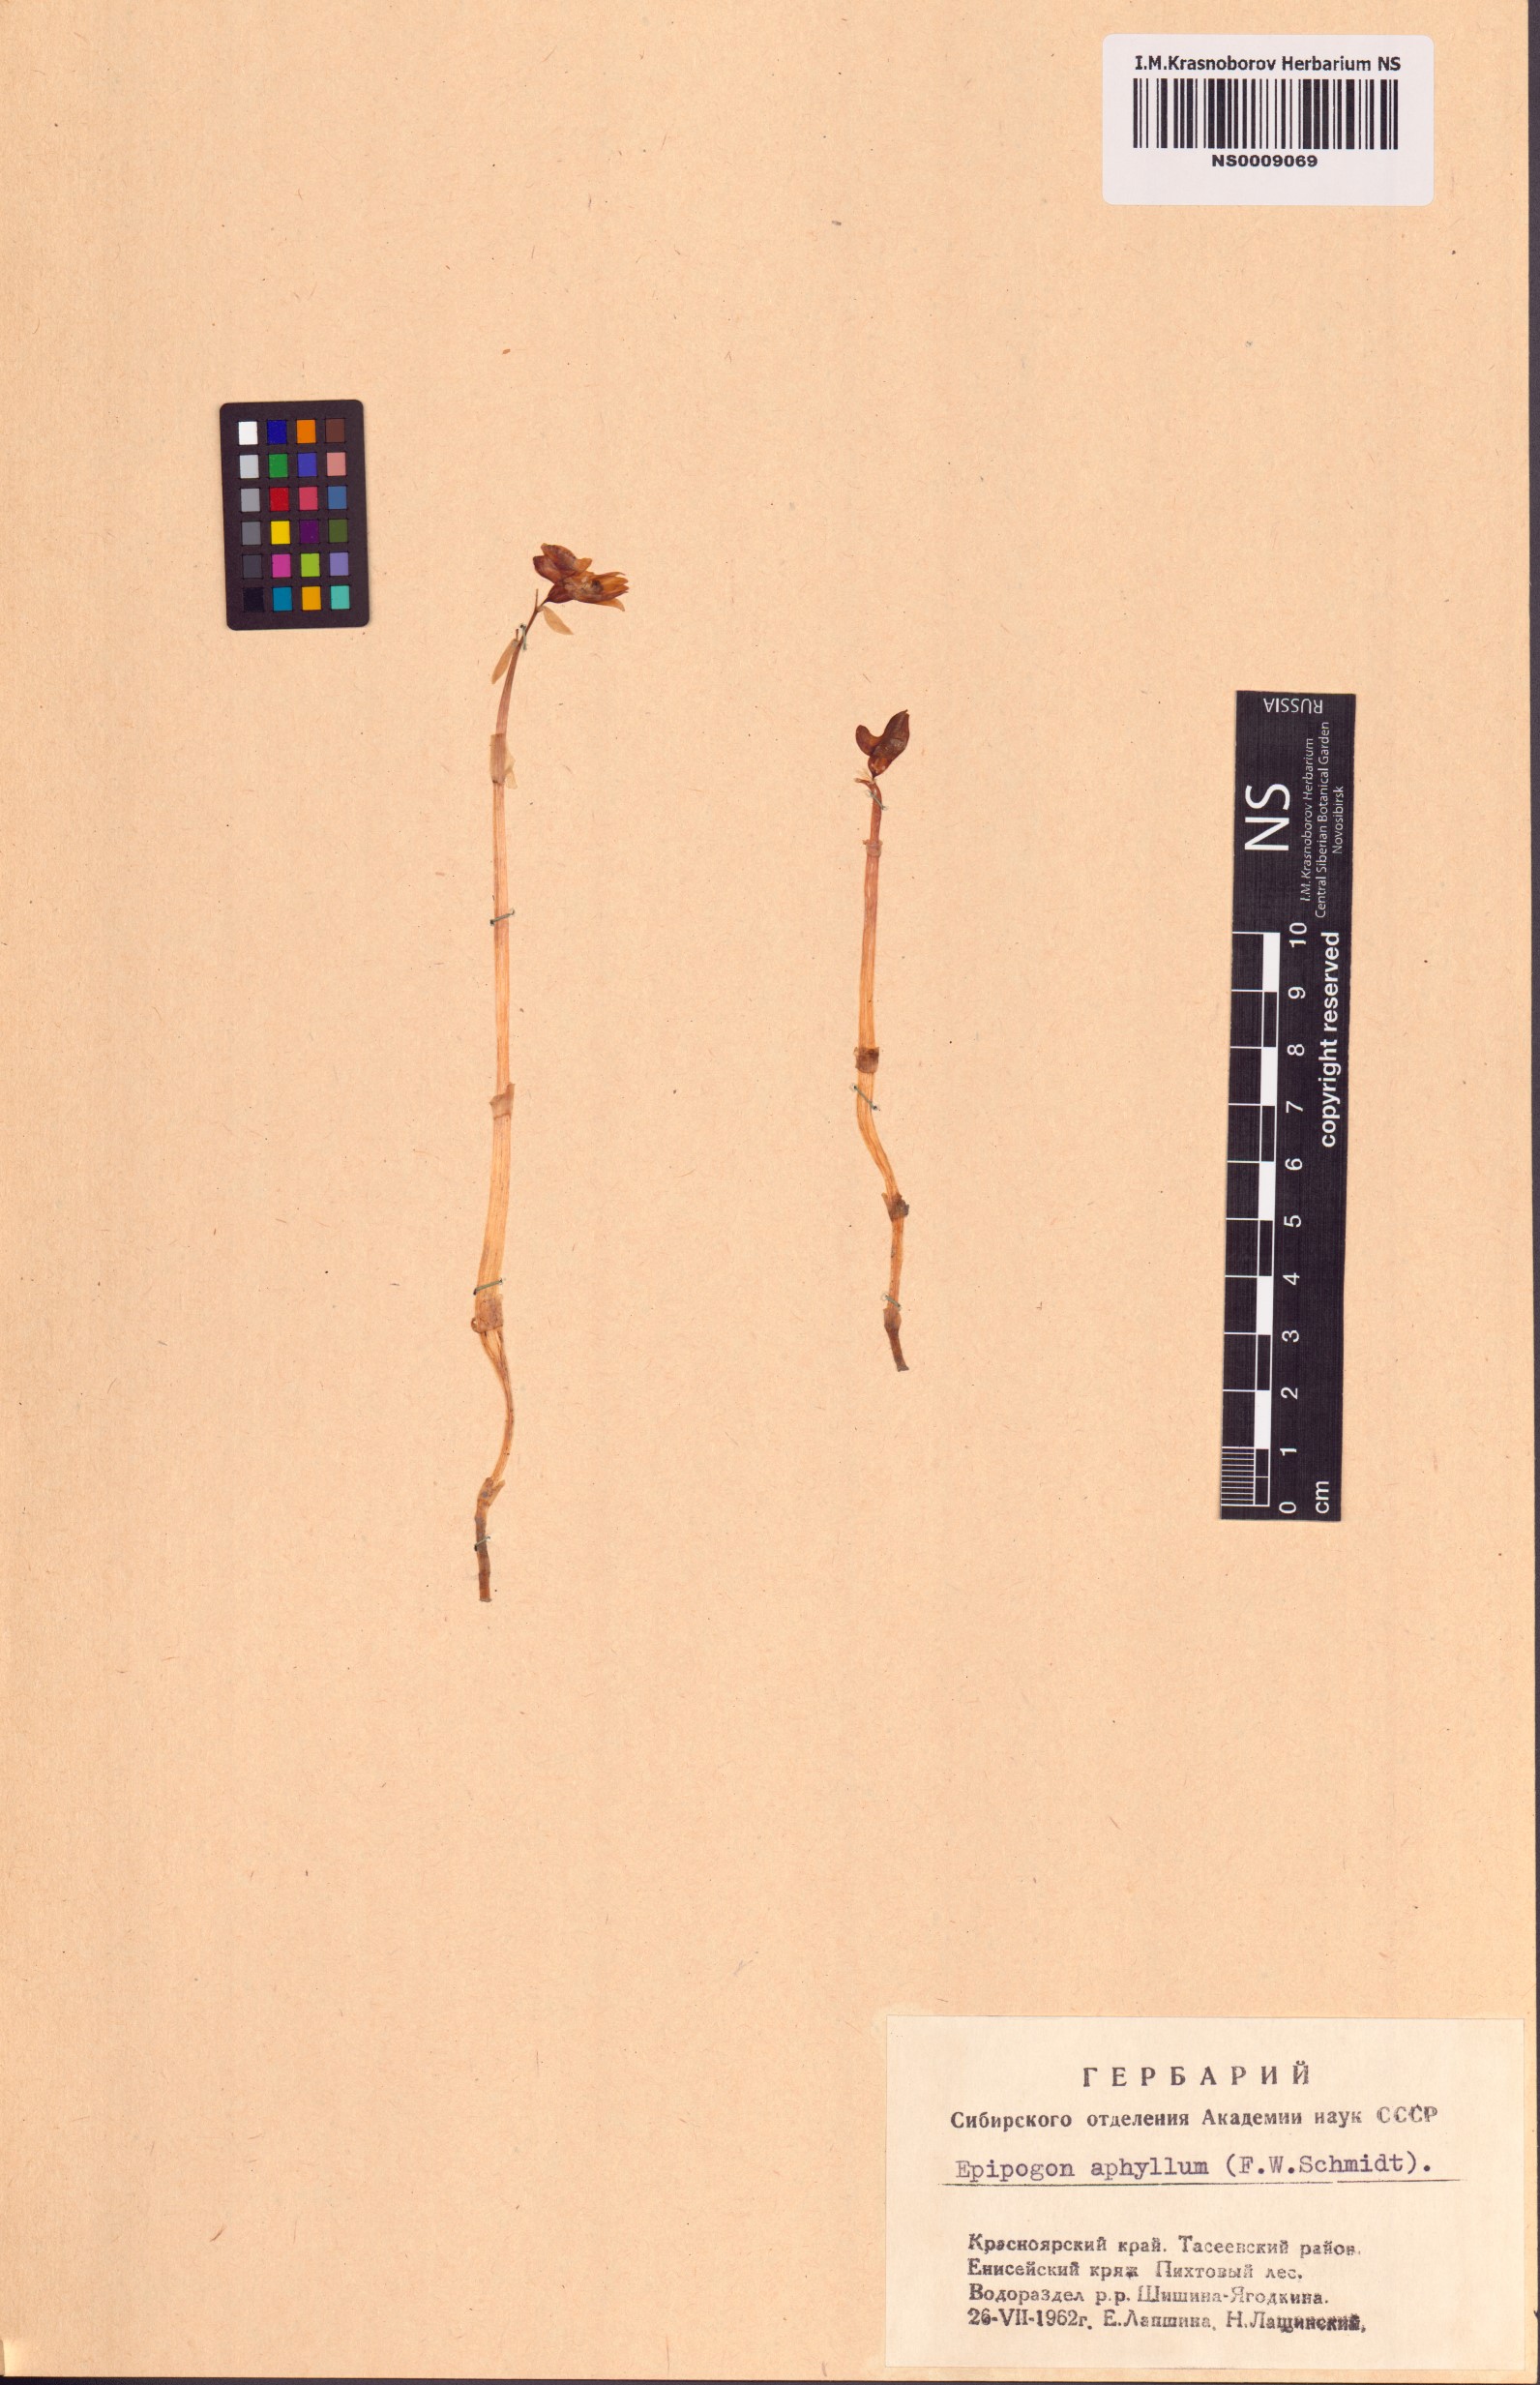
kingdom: Plantae
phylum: Tracheophyta
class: Liliopsida
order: Asparagales
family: Orchidaceae
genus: Epipogium
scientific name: Epipogium aphyllum
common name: Ghost orchid
